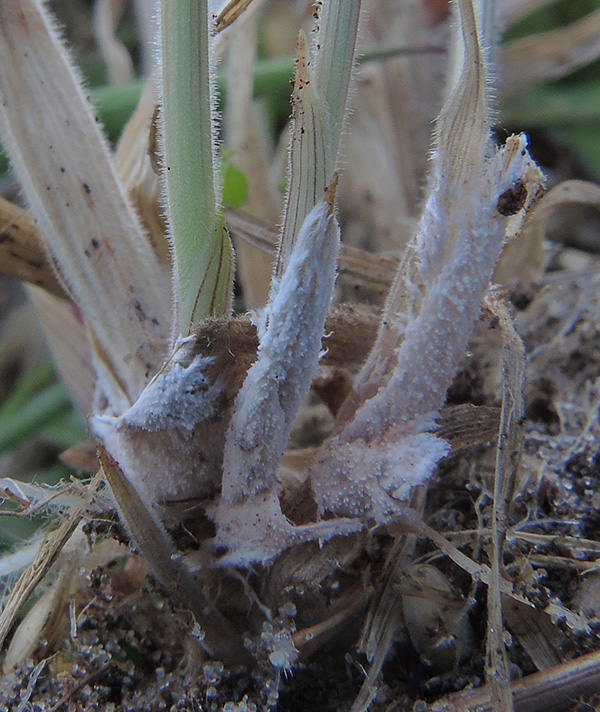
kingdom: Fungi
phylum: Basidiomycota
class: Agaricomycetes
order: Polyporales
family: Steccherinaceae
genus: Steccherinum
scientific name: Steccherinum fimbriatum
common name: trådet skønpig
